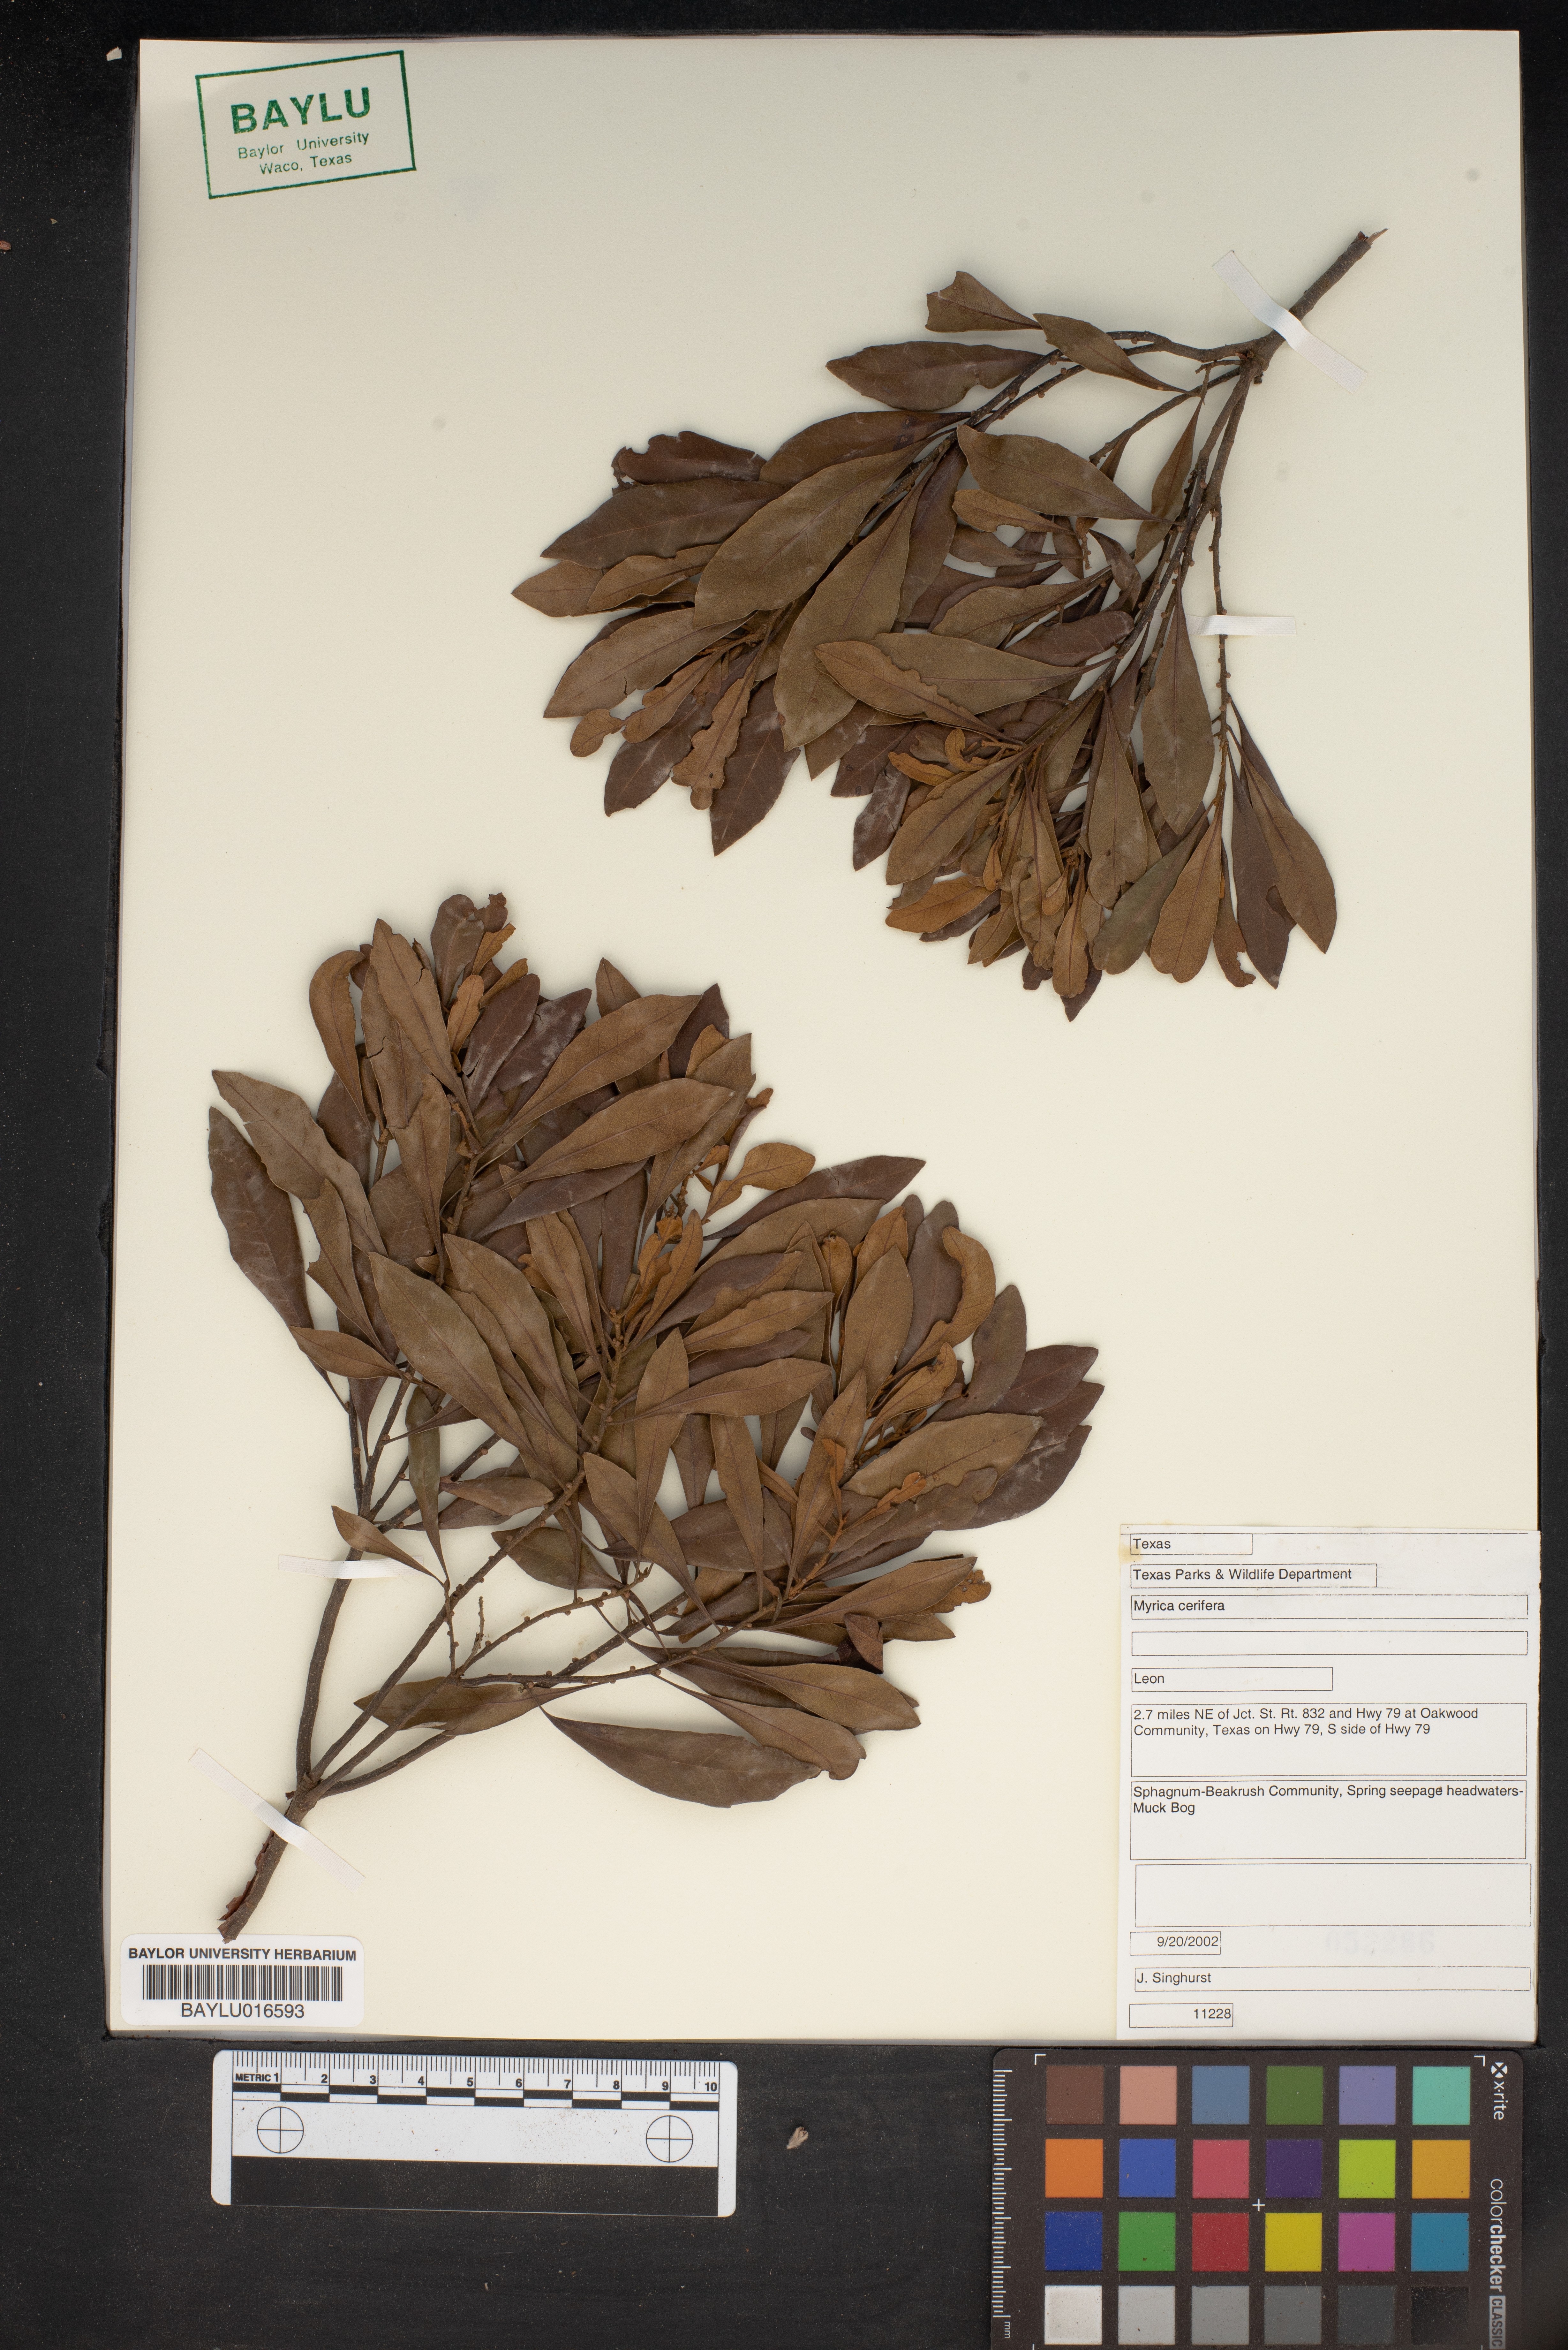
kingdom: Plantae
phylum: Tracheophyta
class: Magnoliopsida
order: Fagales
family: Myricaceae
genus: Morella
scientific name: Morella cerifera
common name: Wax myrtle
